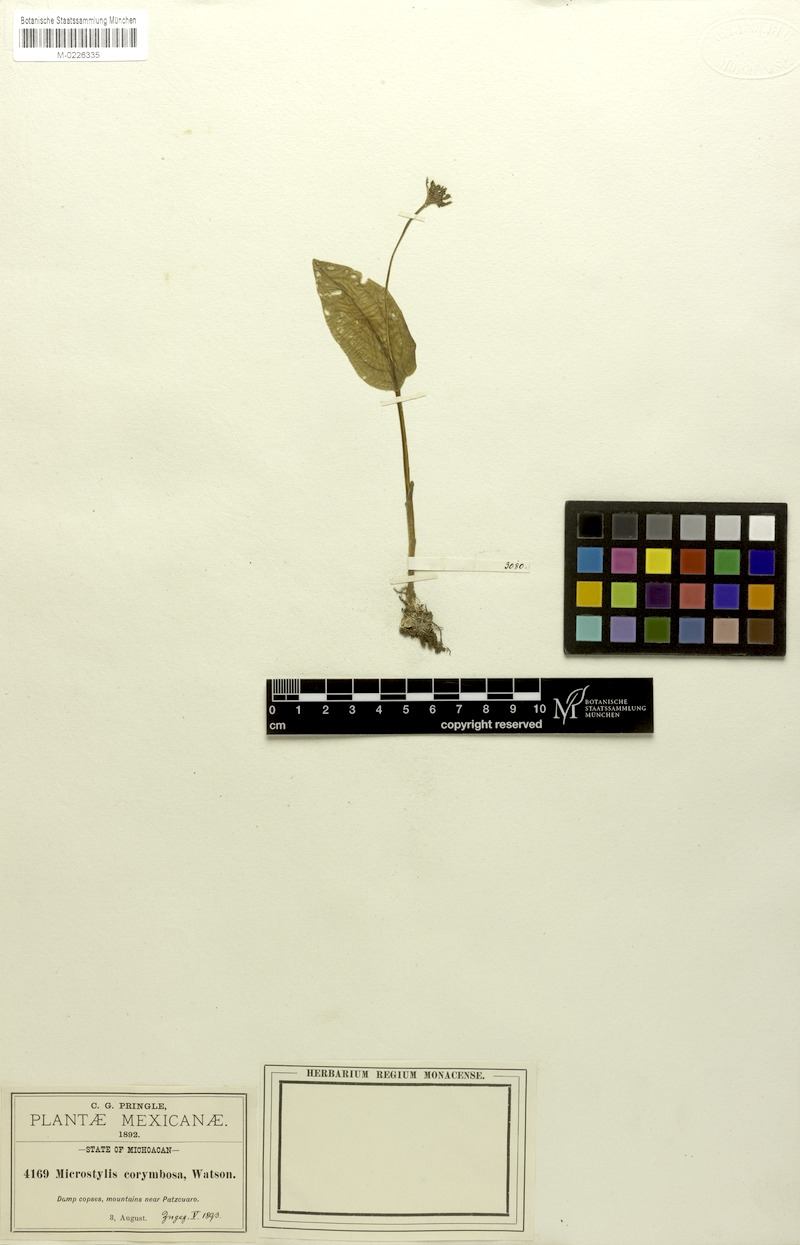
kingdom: Plantae
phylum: Tracheophyta
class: Liliopsida
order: Asparagales
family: Orchidaceae
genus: Malaxis
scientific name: Malaxis brachystachys
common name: Huachuca adder's-mouth
